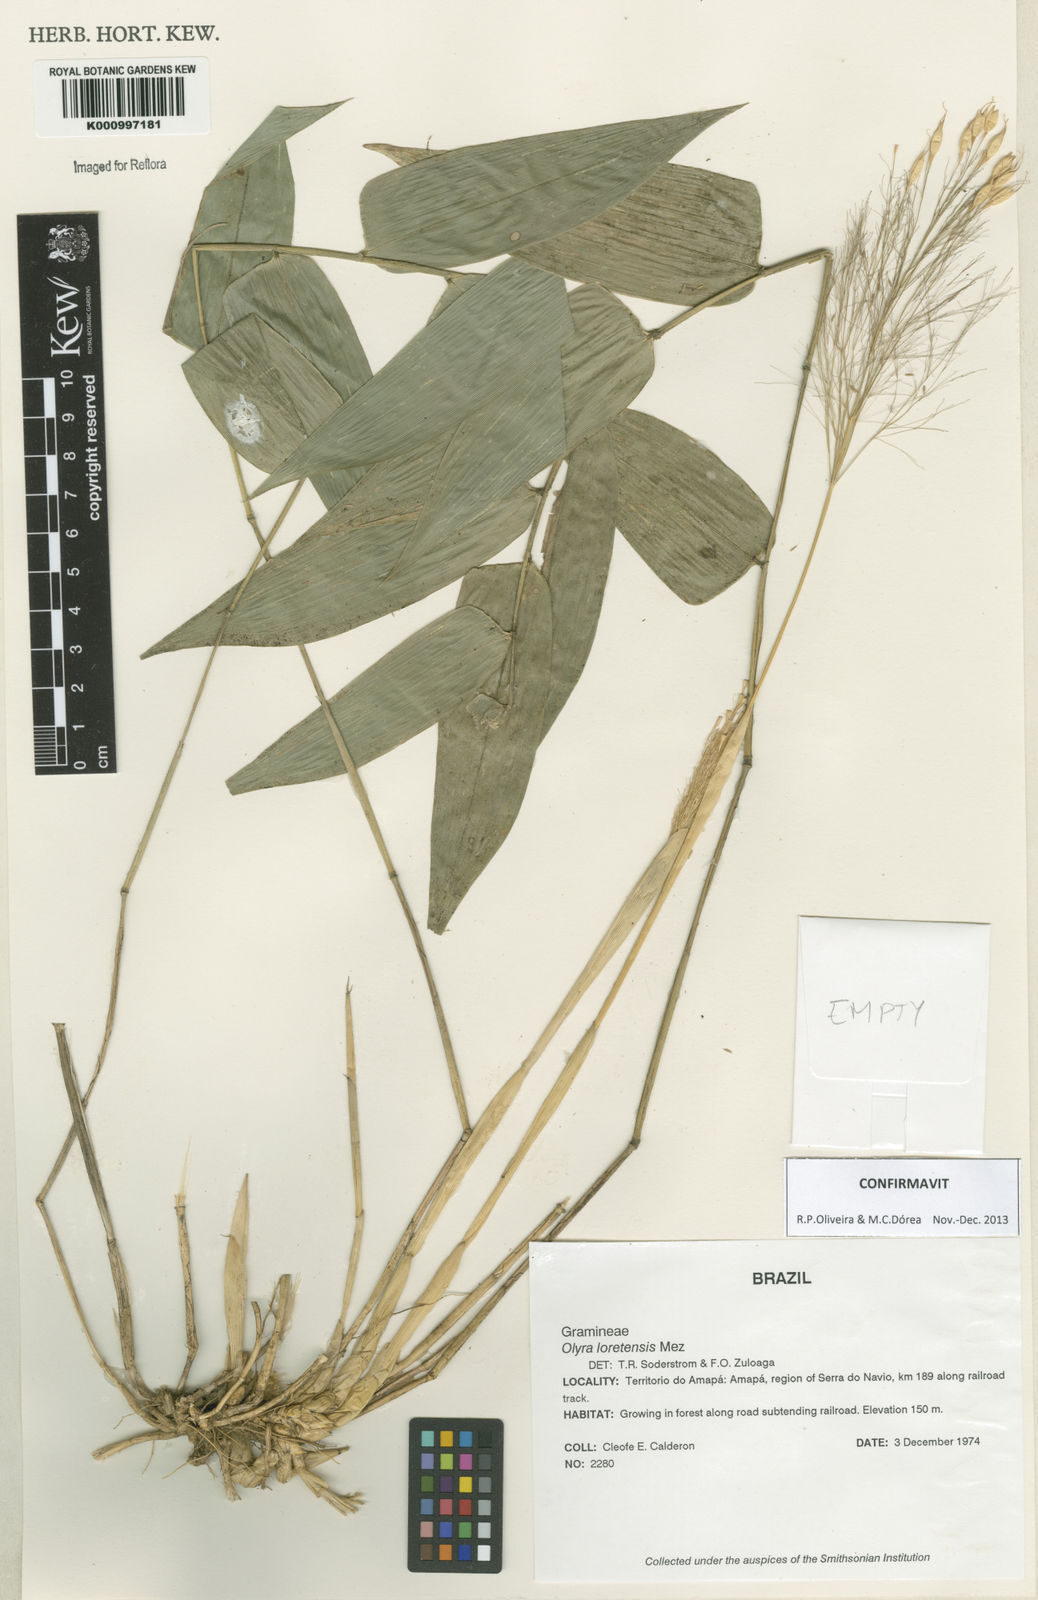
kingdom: Plantae
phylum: Tracheophyta
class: Liliopsida
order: Poales
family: Poaceae
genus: Olyra
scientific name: Olyra loretensis
